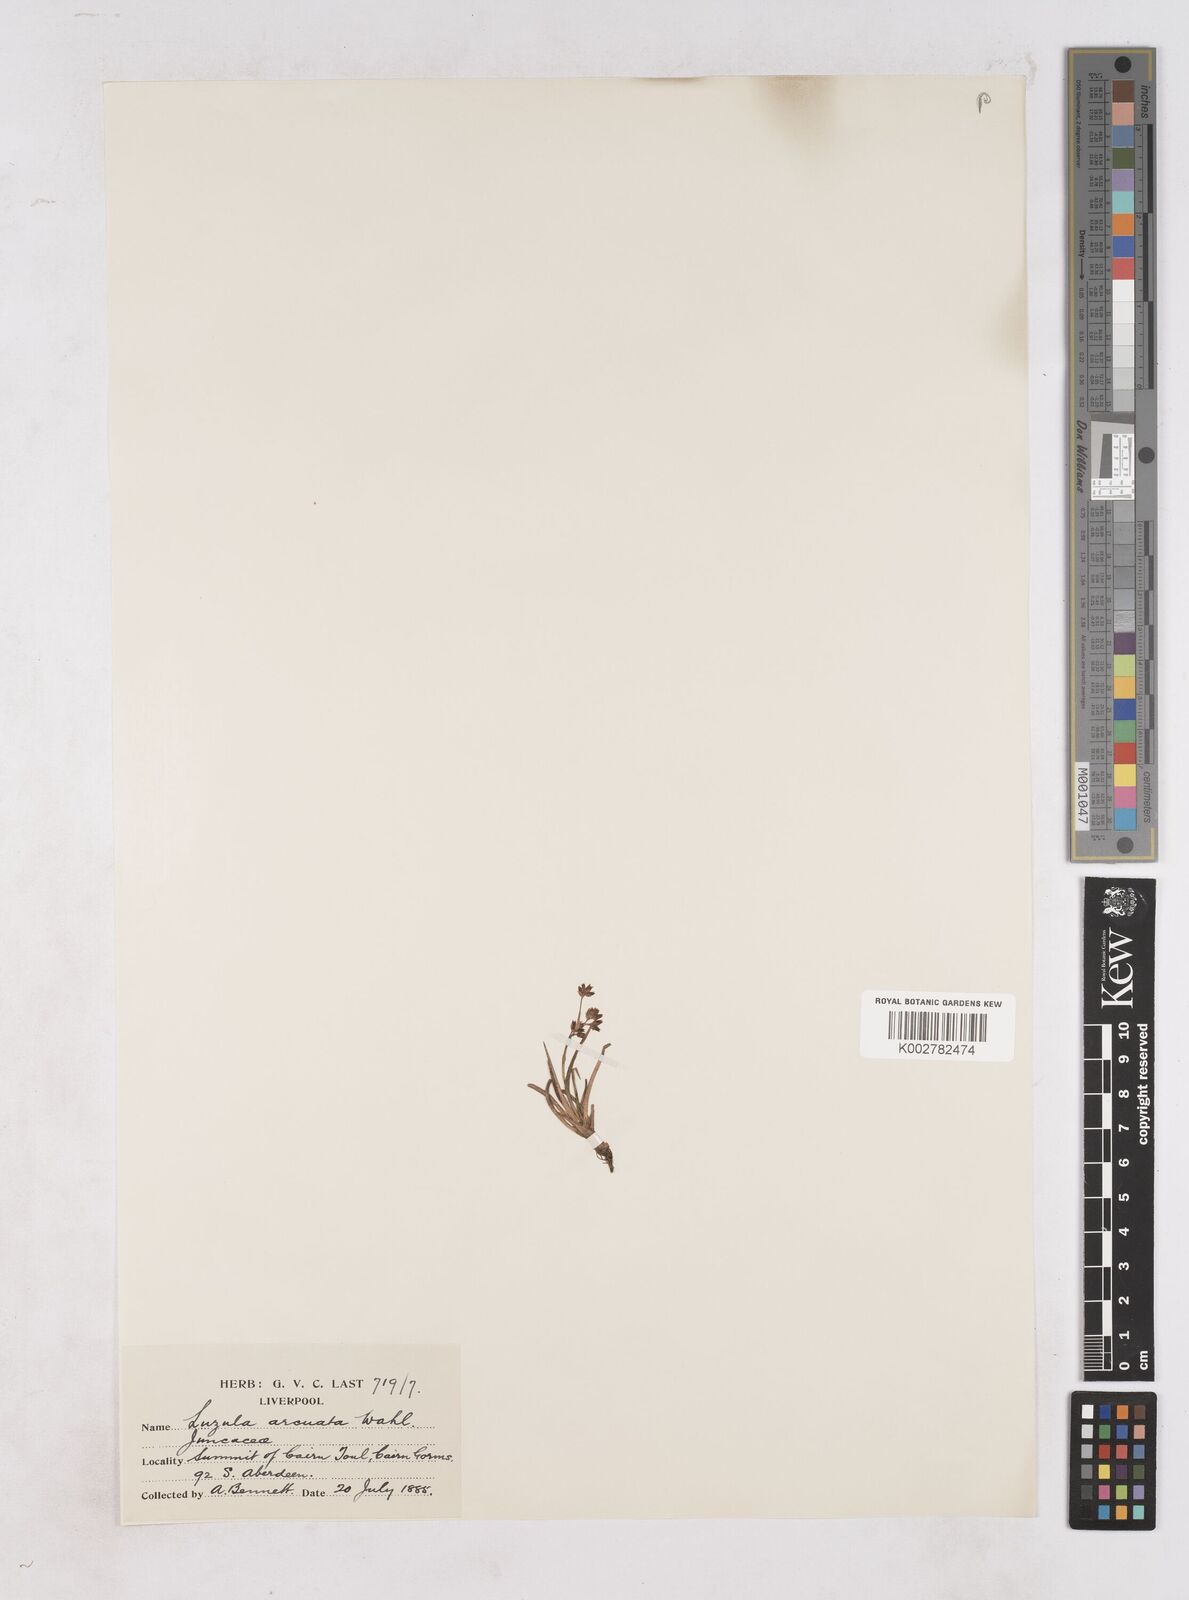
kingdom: Plantae
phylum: Tracheophyta
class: Liliopsida
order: Poales
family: Juncaceae
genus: Luzula
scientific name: Luzula arcuata
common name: Curved wood-rush
